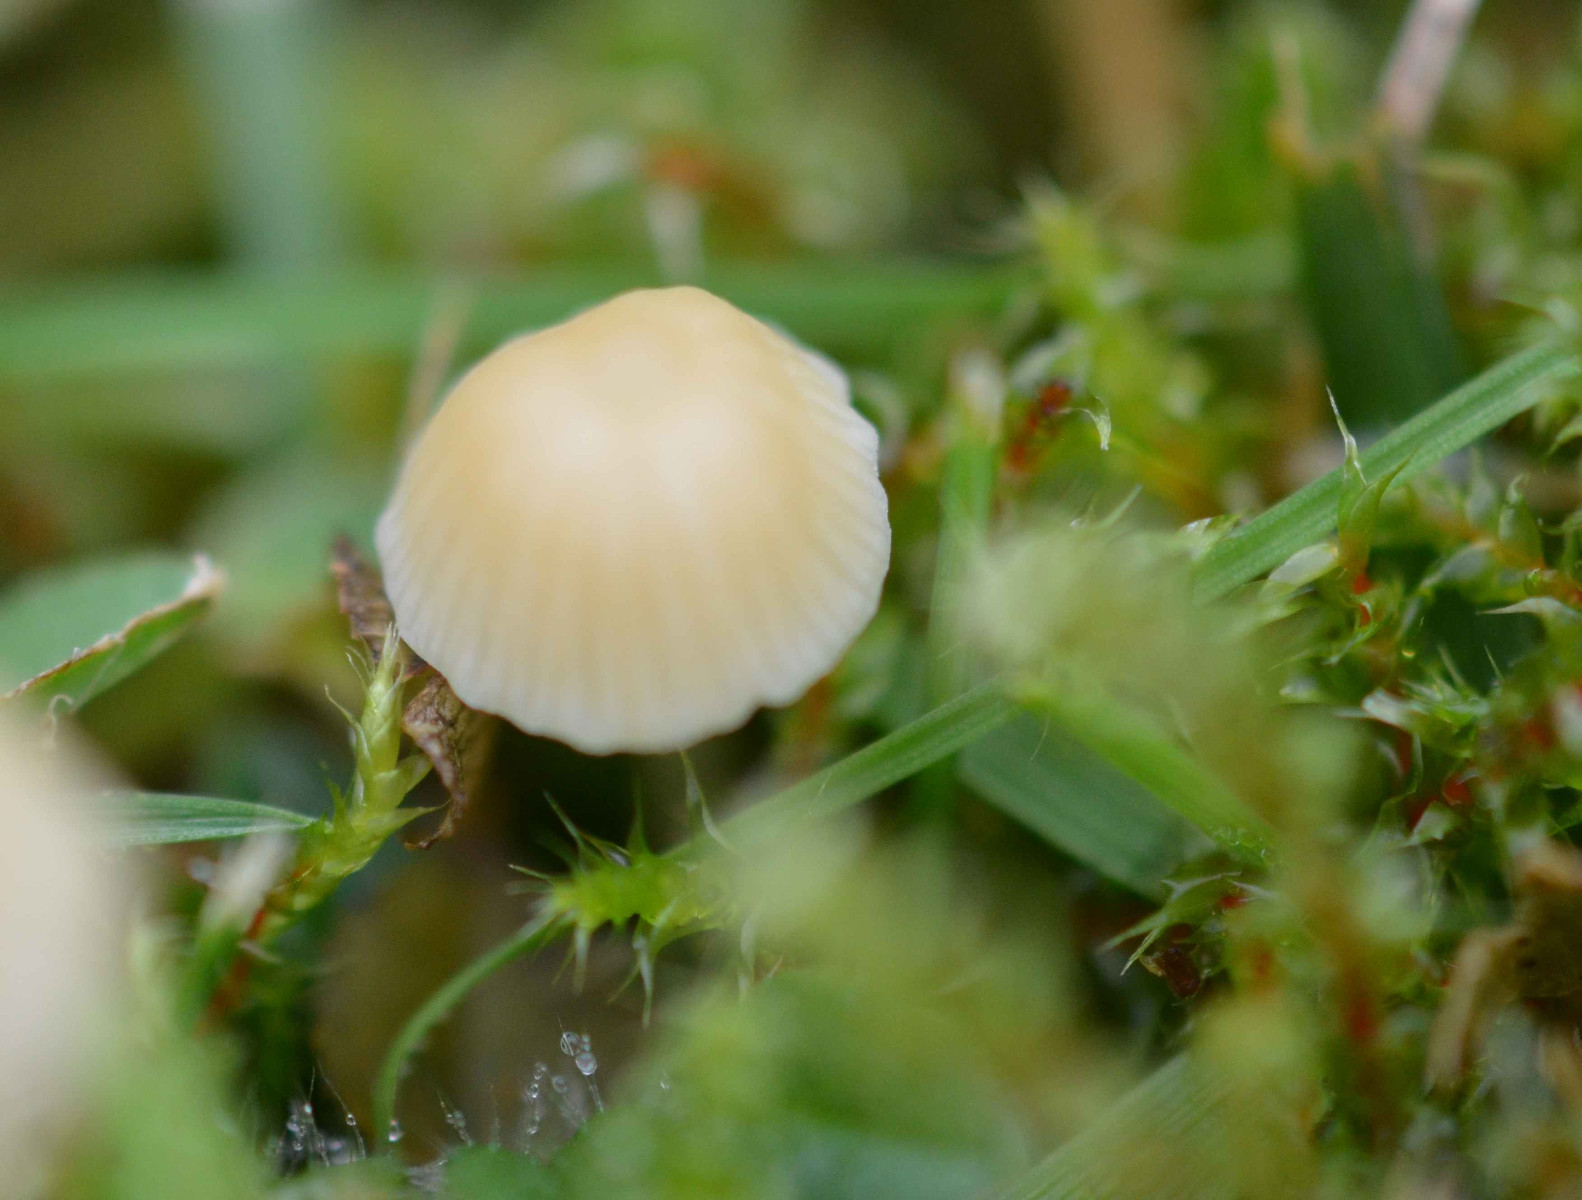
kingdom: Fungi
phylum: Basidiomycota
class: Agaricomycetes
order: Agaricales
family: Mycenaceae
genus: Atheniella
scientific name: Atheniella flavoalba
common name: gulhvid huesvamp
